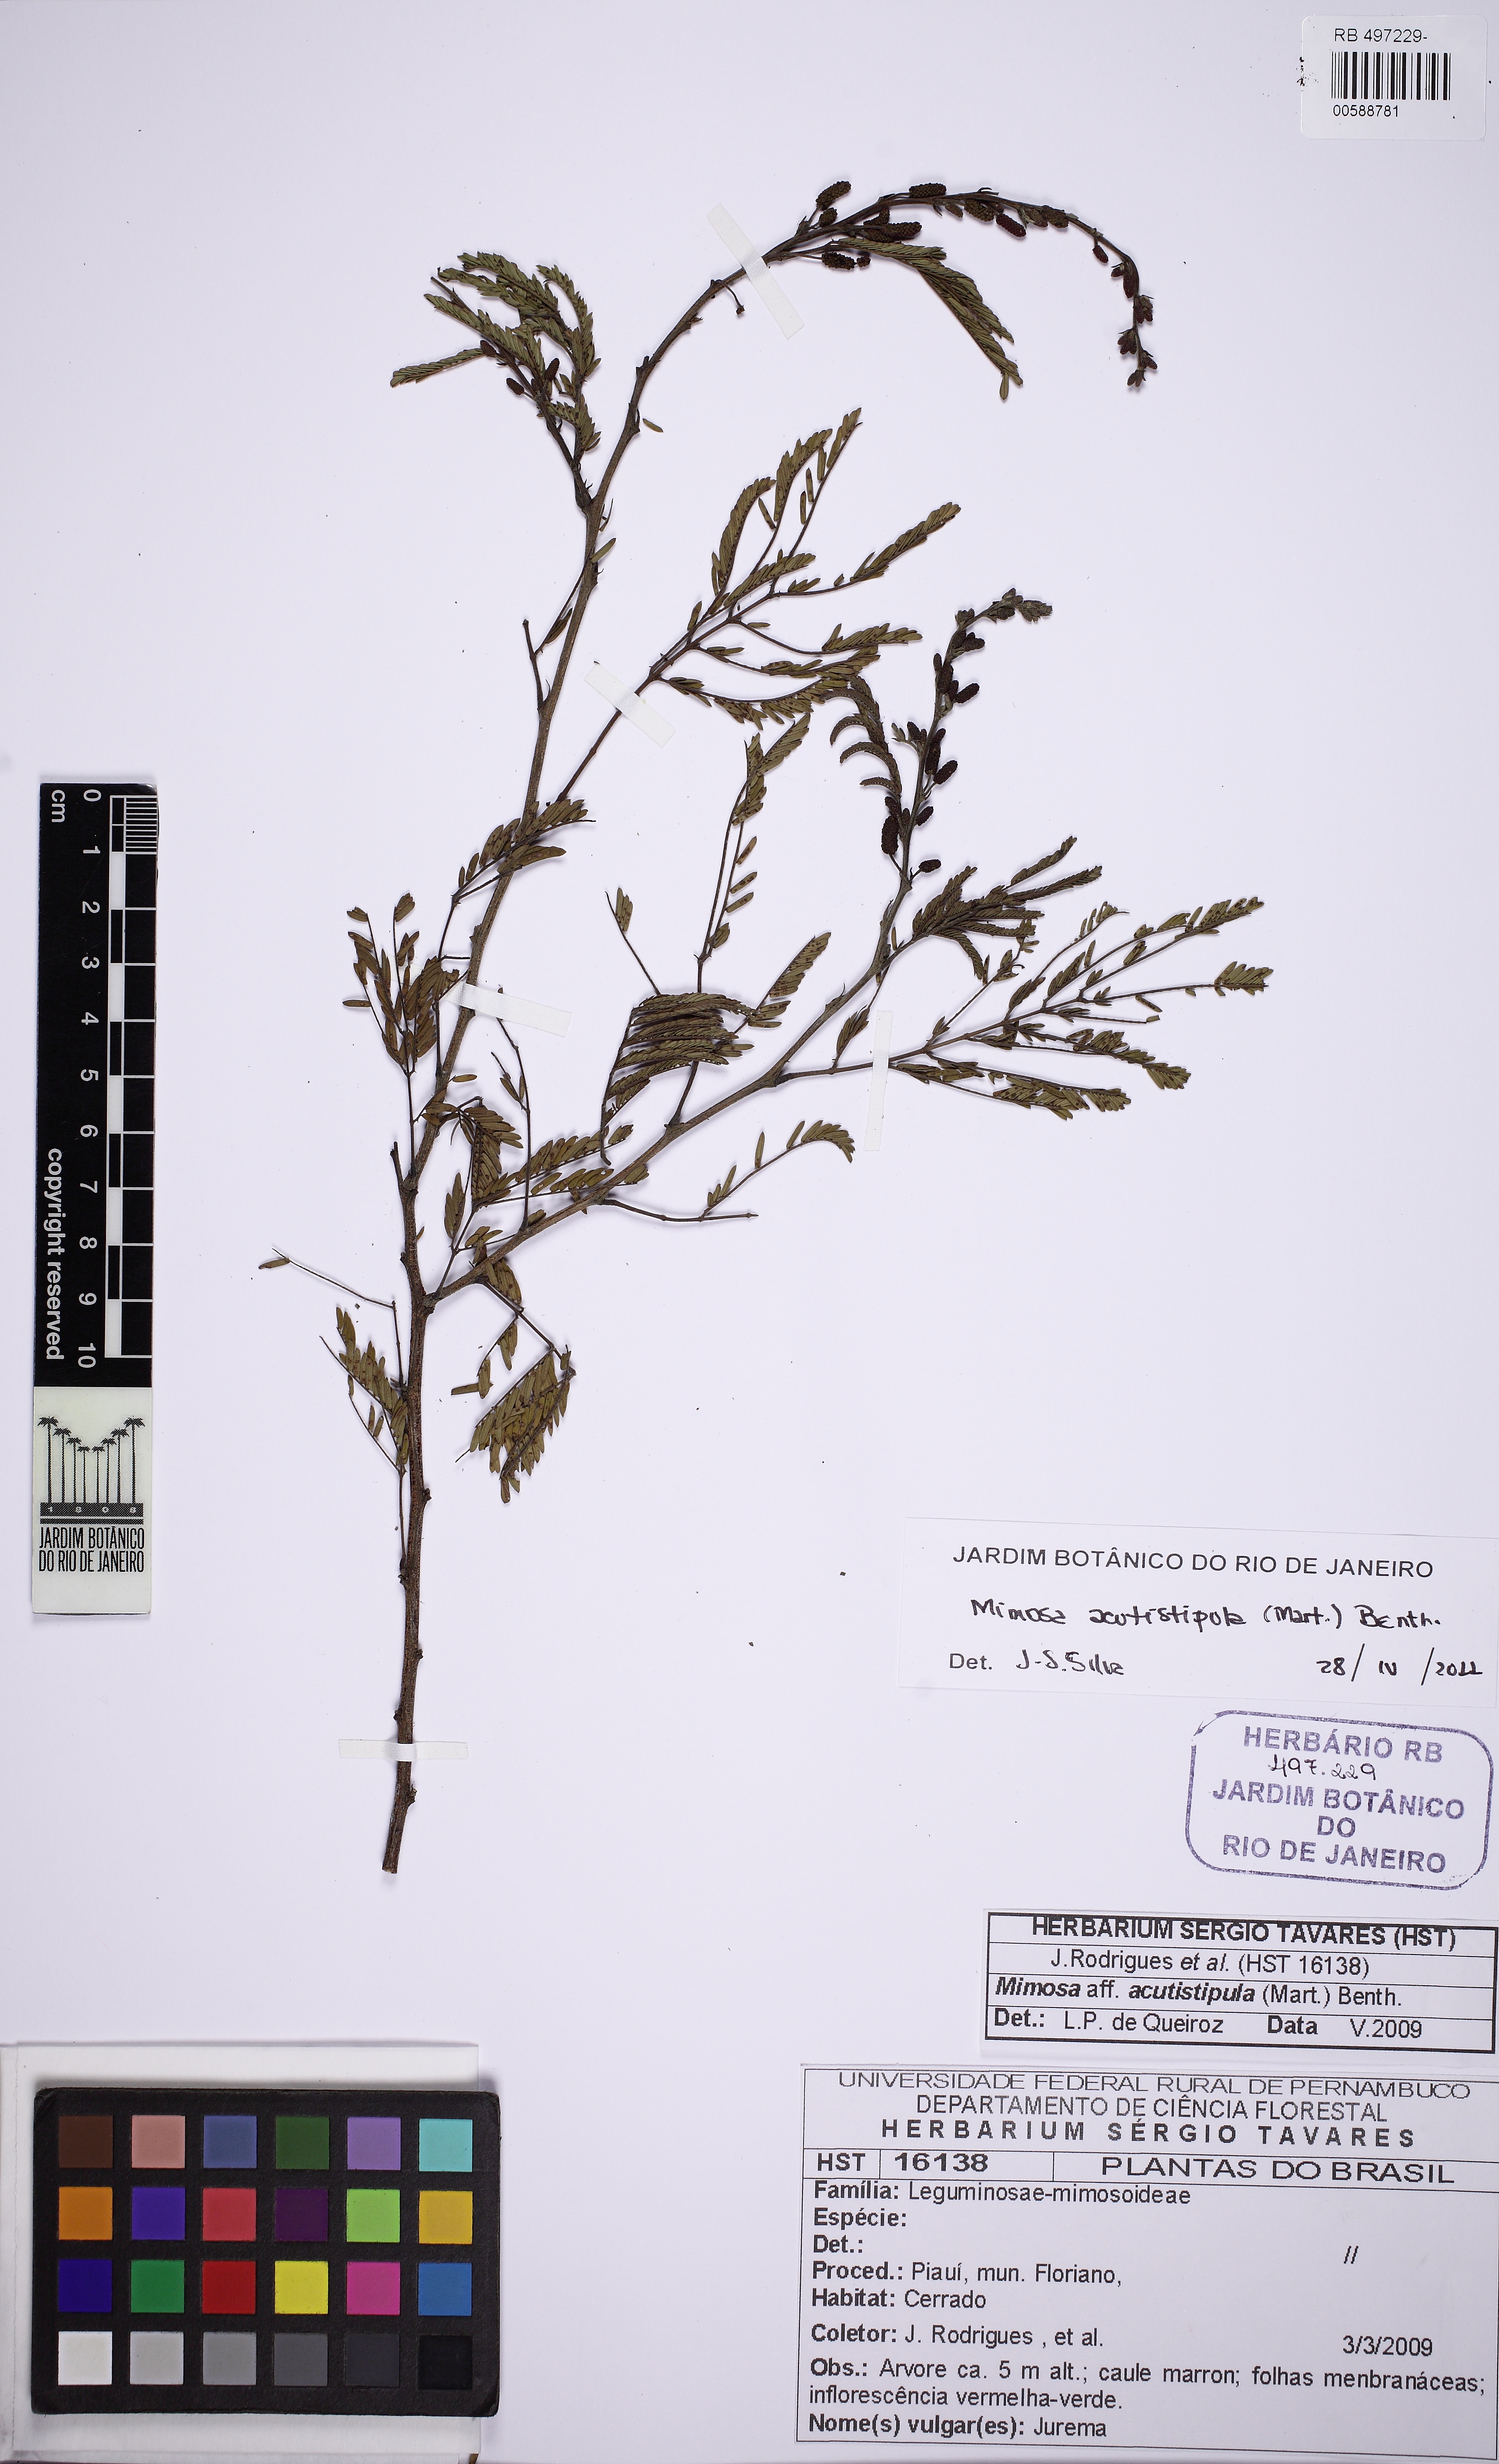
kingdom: Plantae
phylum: Tracheophyta
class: Magnoliopsida
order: Fabales
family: Fabaceae
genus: Mimosa
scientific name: Mimosa acutistipula
